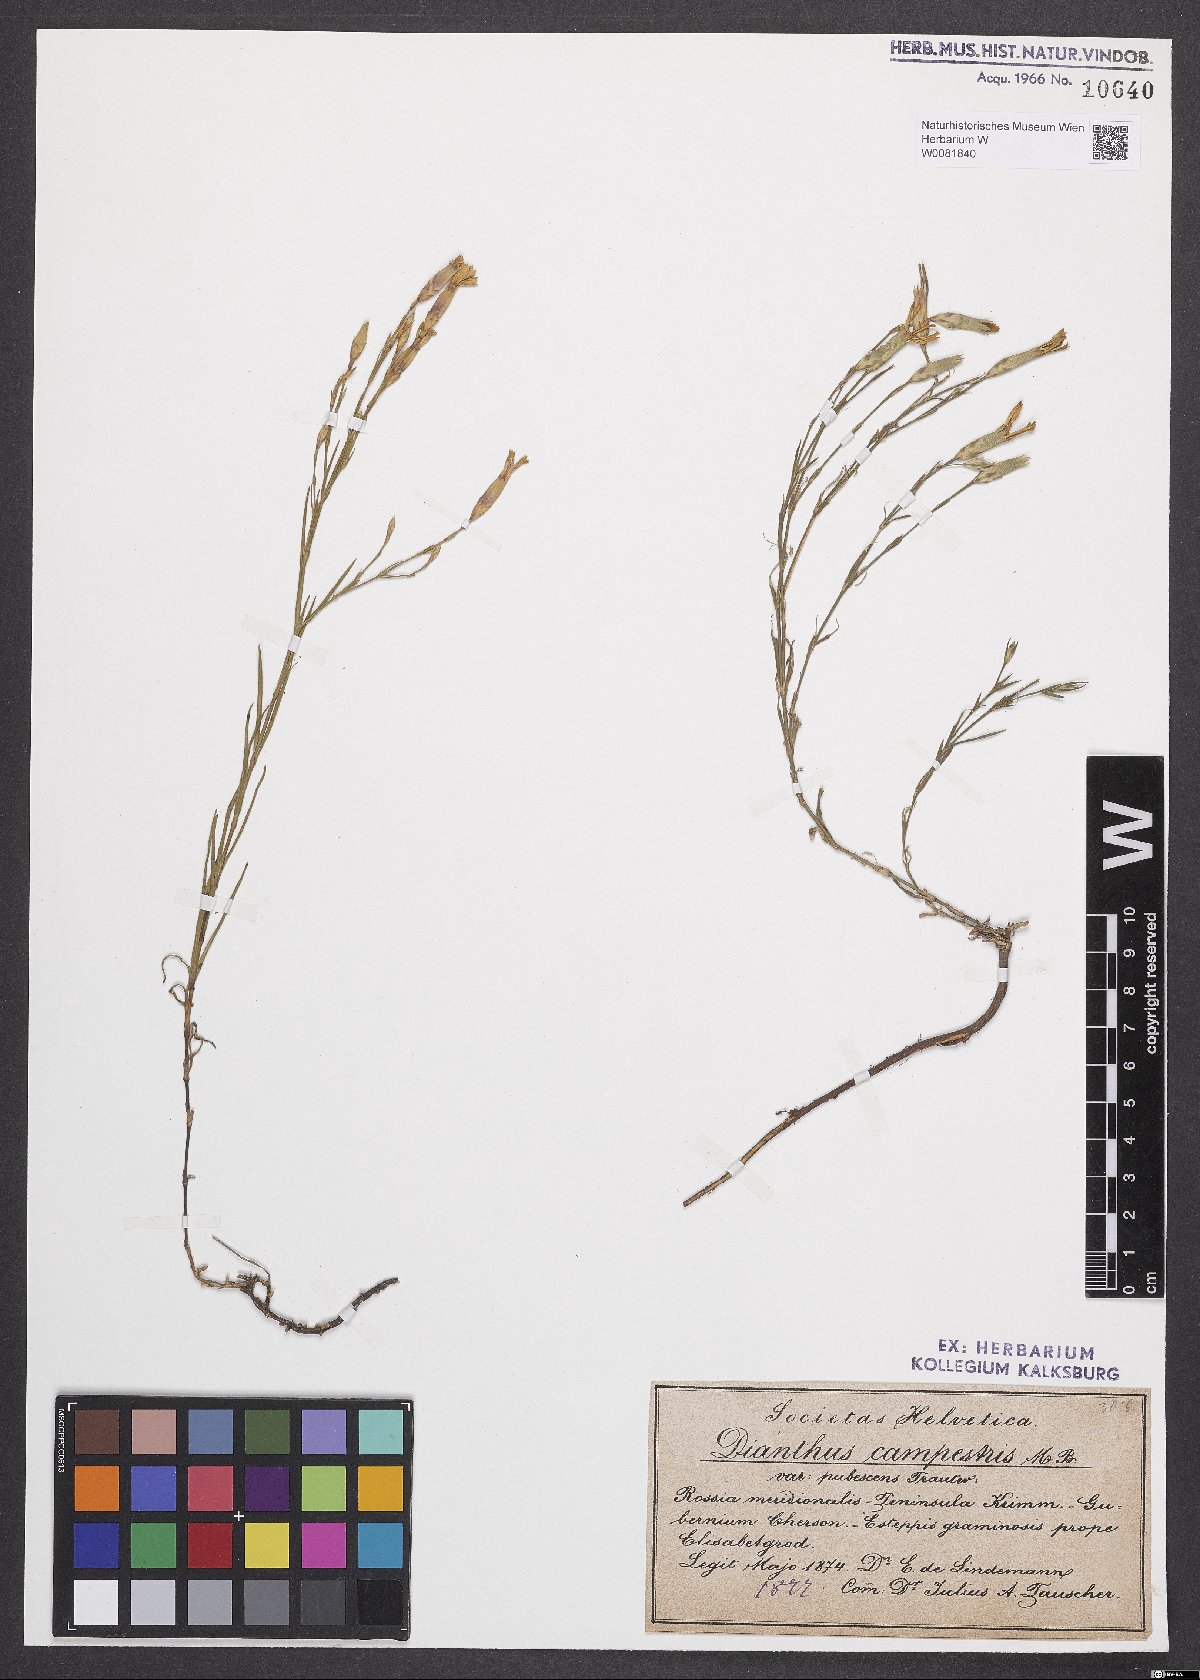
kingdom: Plantae
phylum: Tracheophyta
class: Magnoliopsida
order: Caryophyllales
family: Caryophyllaceae
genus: Dianthus
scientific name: Dianthus campestris
